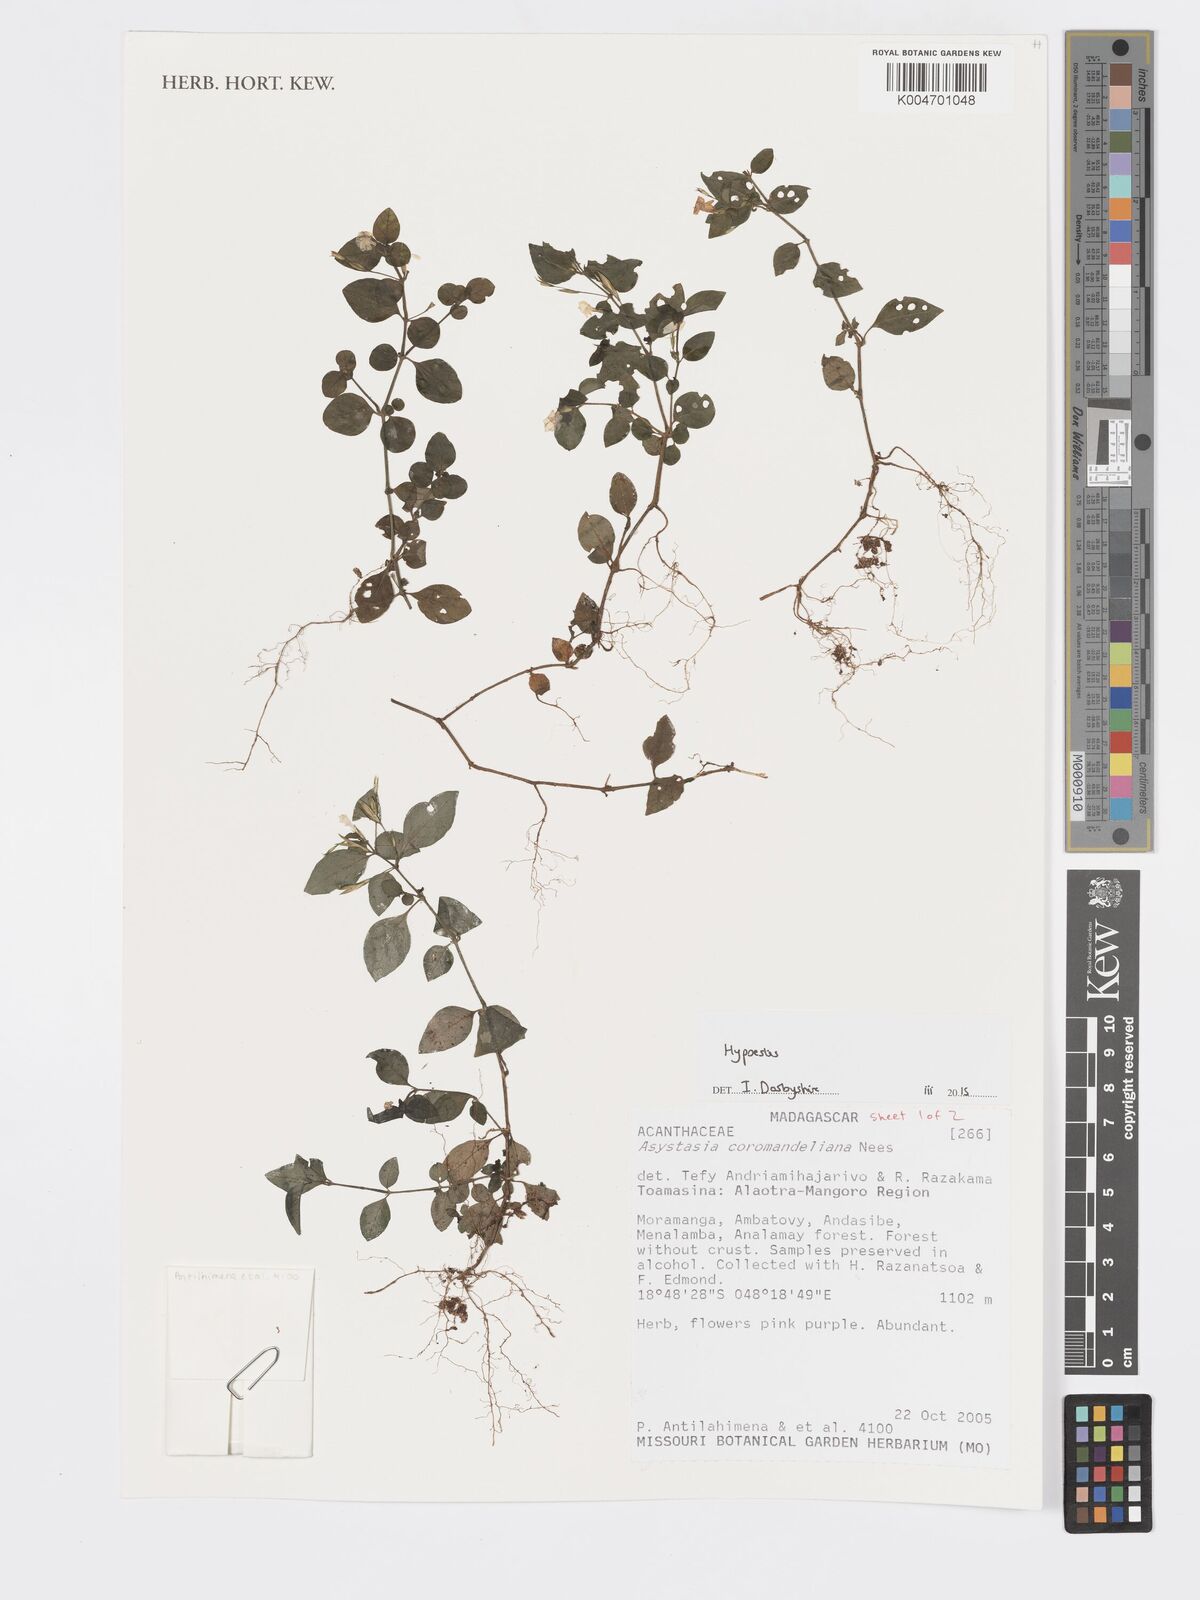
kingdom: Plantae
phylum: Tracheophyta
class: Magnoliopsida
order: Lamiales
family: Acanthaceae
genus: Hypoestes
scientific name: Hypoestes
